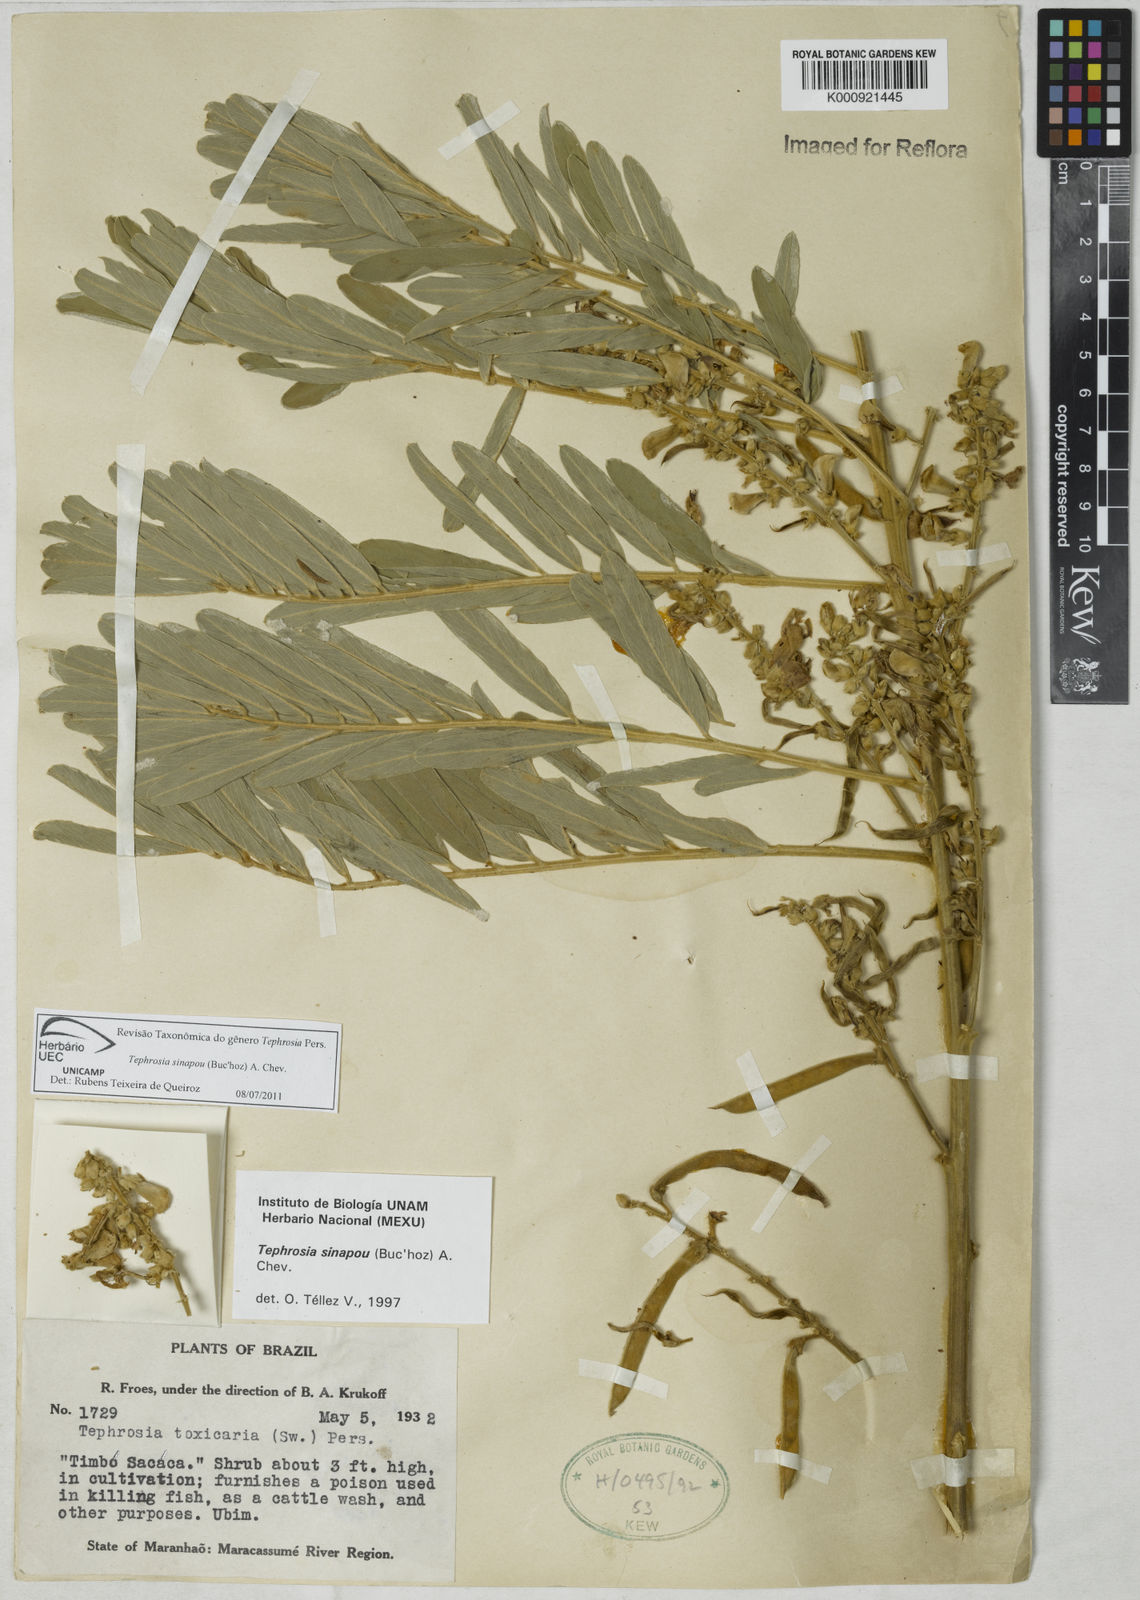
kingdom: Plantae
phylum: Tracheophyta
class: Magnoliopsida
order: Fabales
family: Fabaceae
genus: Tephrosia
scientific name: Tephrosia
